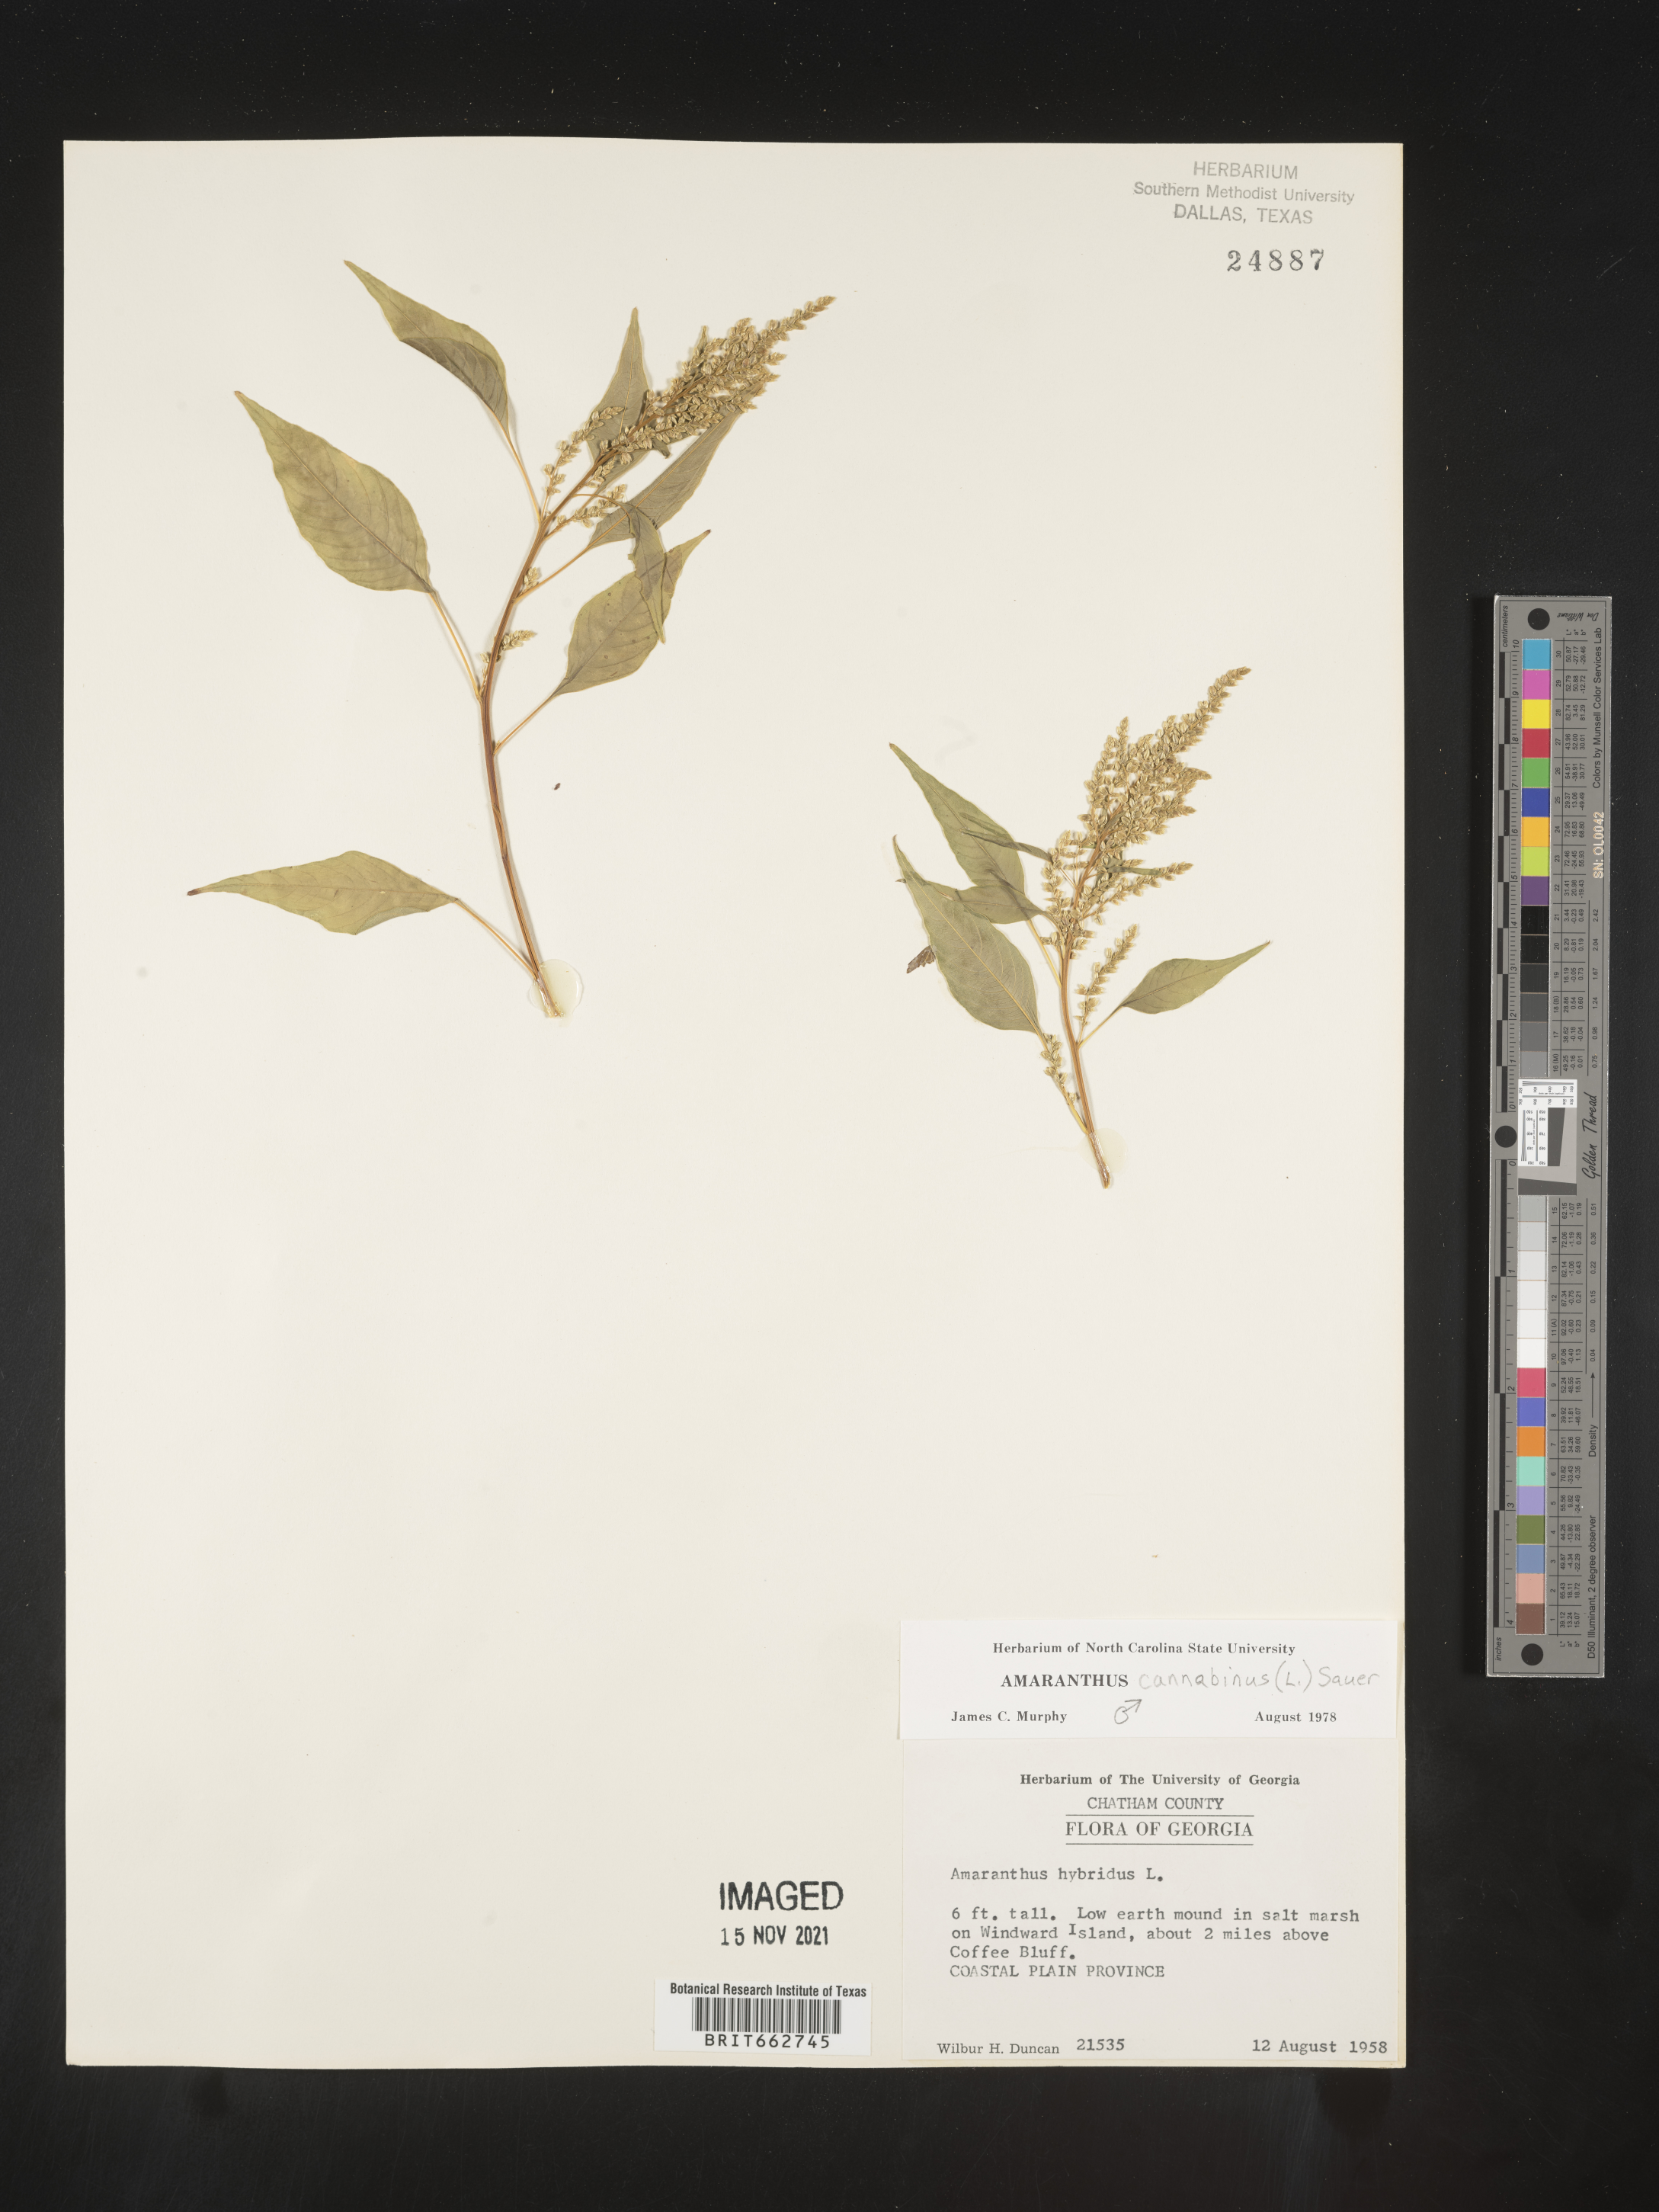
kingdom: Plantae
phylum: Tracheophyta
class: Magnoliopsida
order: Caryophyllales
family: Amaranthaceae
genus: Amaranthus
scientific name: Amaranthus powellii
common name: Powell's amaranth
